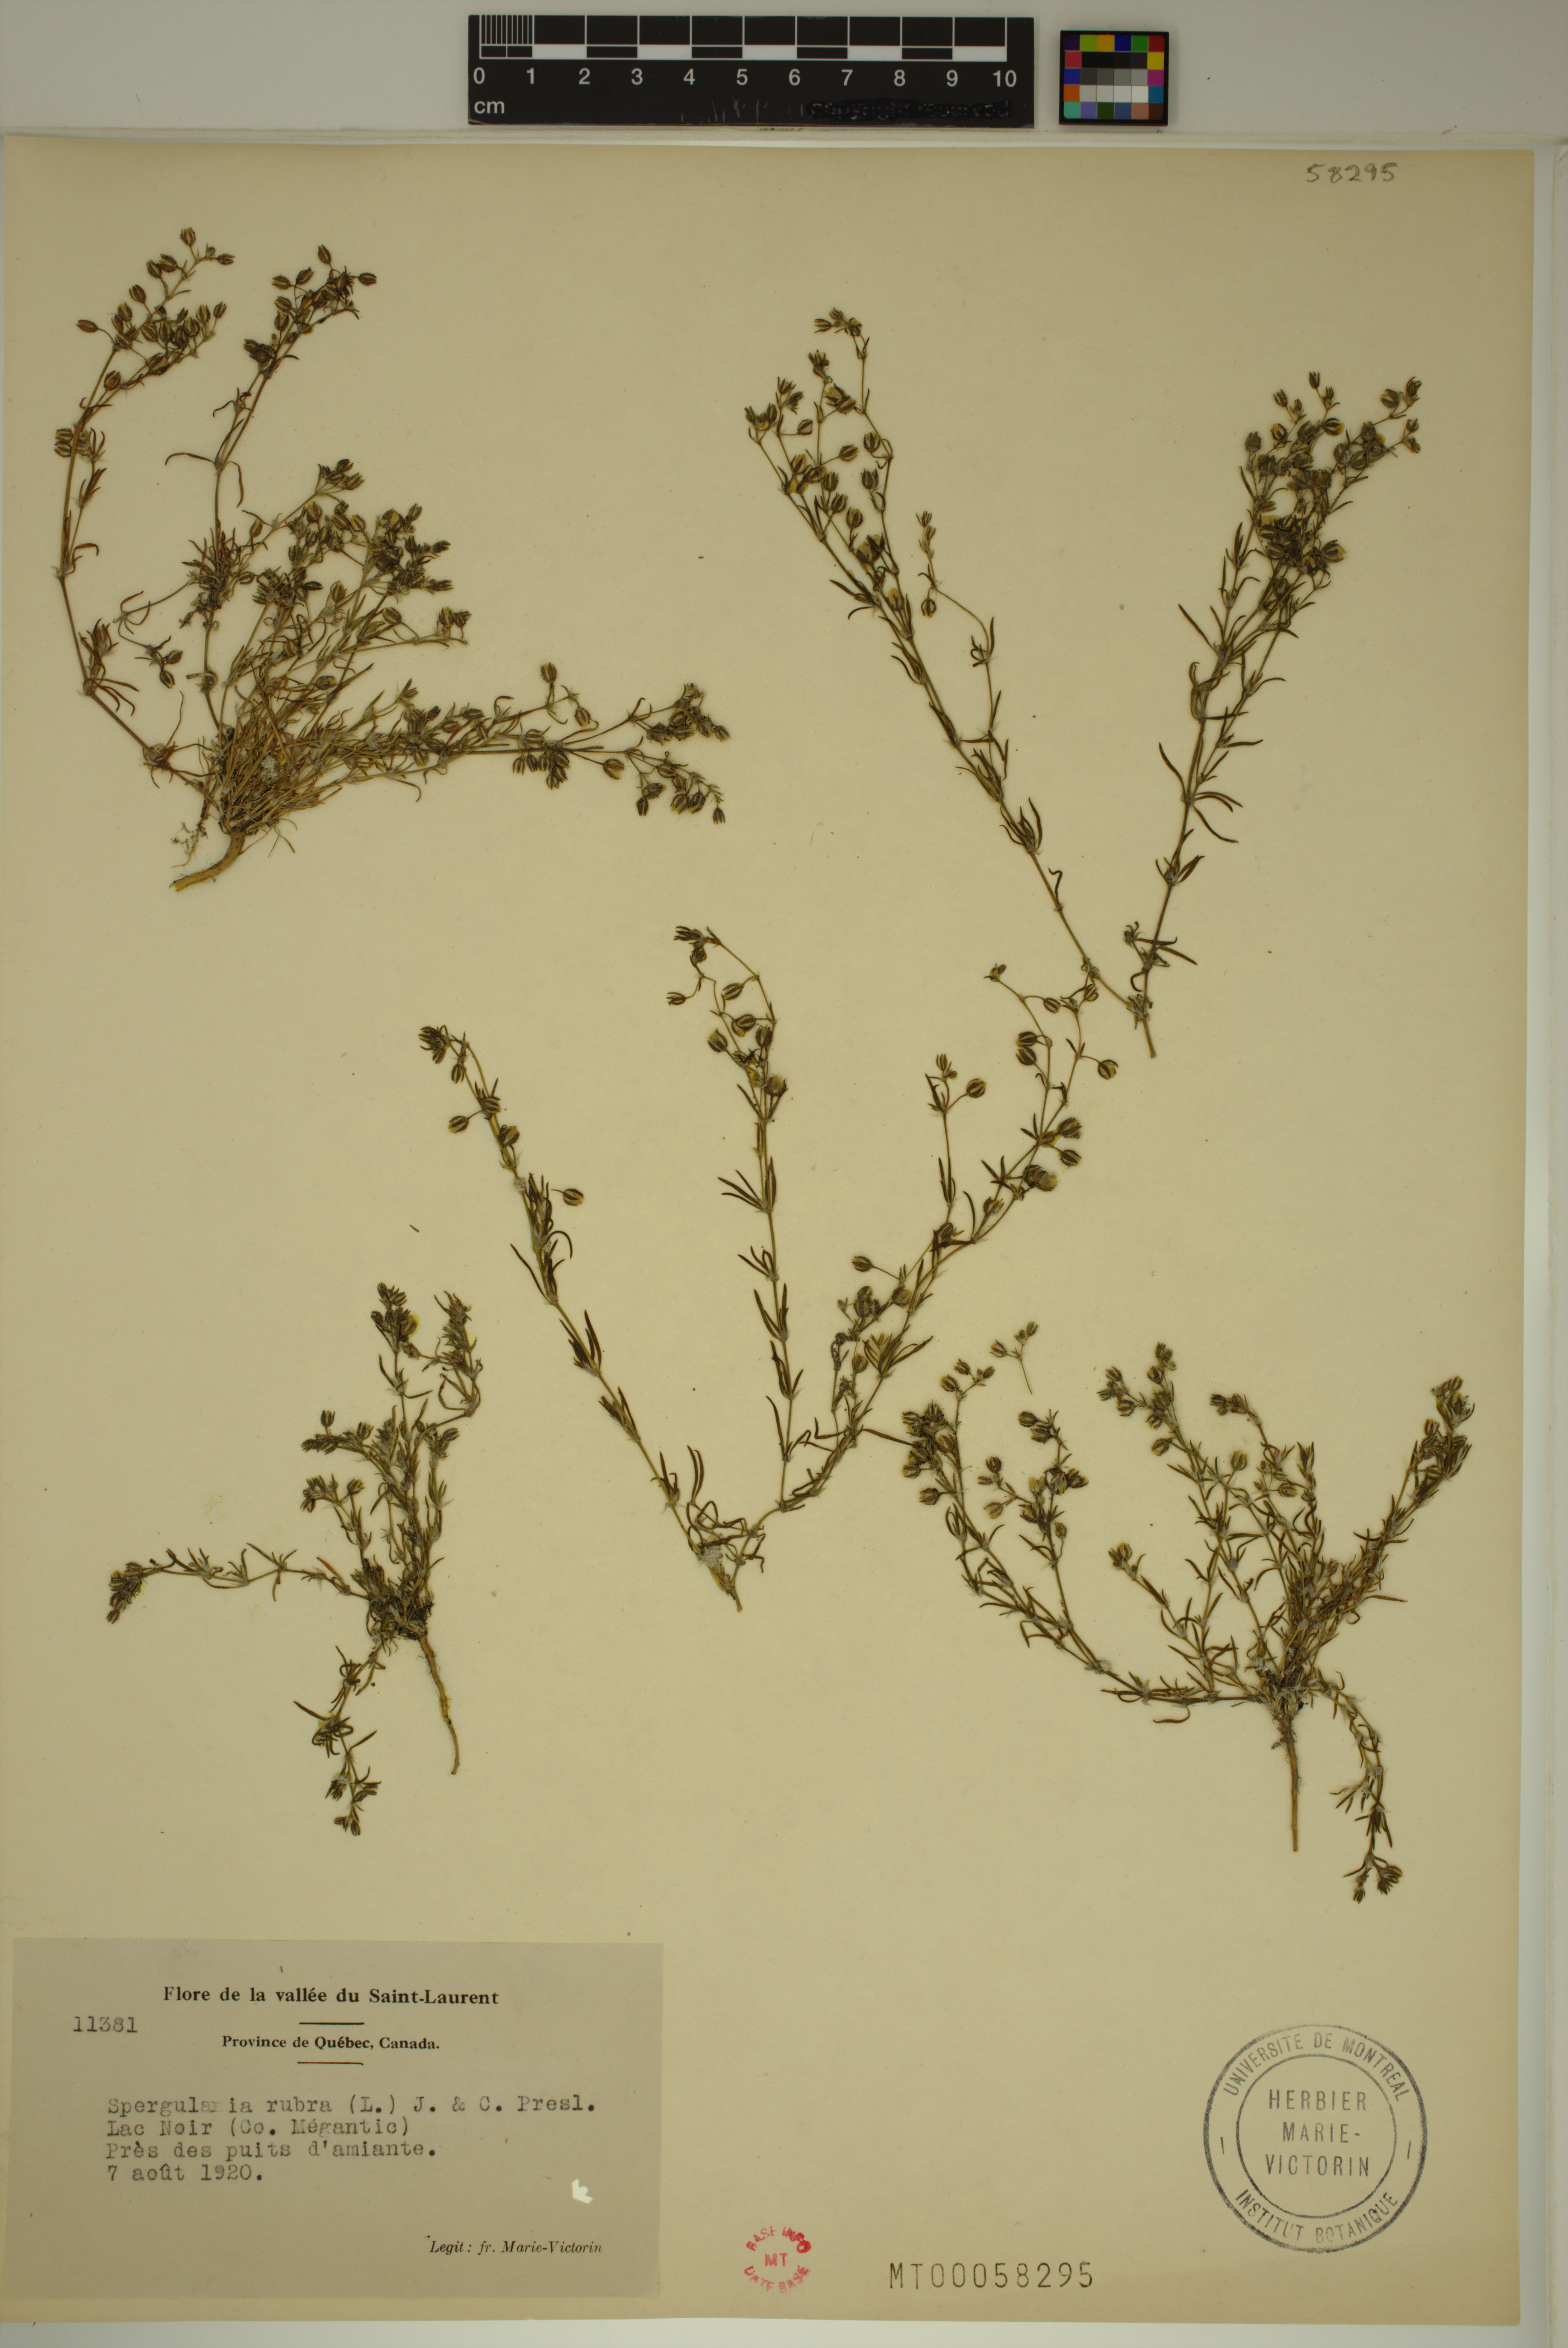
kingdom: Plantae
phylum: Tracheophyta
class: Magnoliopsida
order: Caryophyllales
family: Caryophyllaceae
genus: Spergularia
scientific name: Spergularia rubra
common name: Red sand-spurrey
